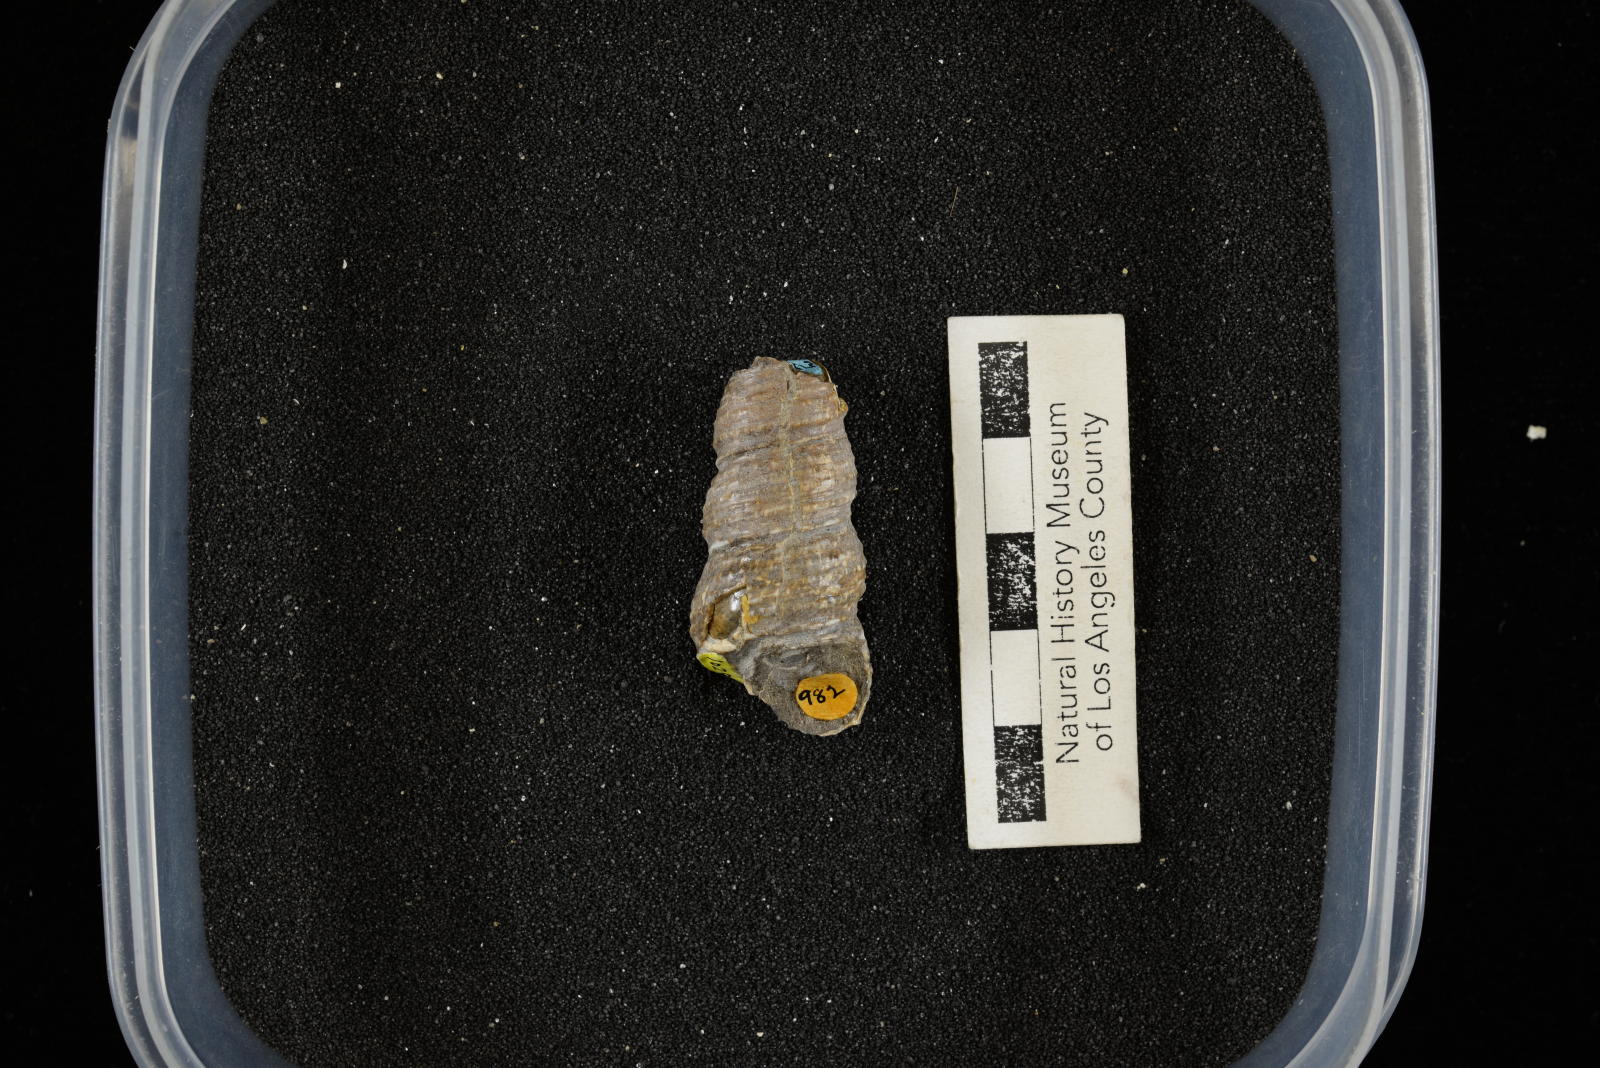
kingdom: Animalia
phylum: Mollusca
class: Gastropoda
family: Turritellidae
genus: Turritella
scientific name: Turritella chicoensis
